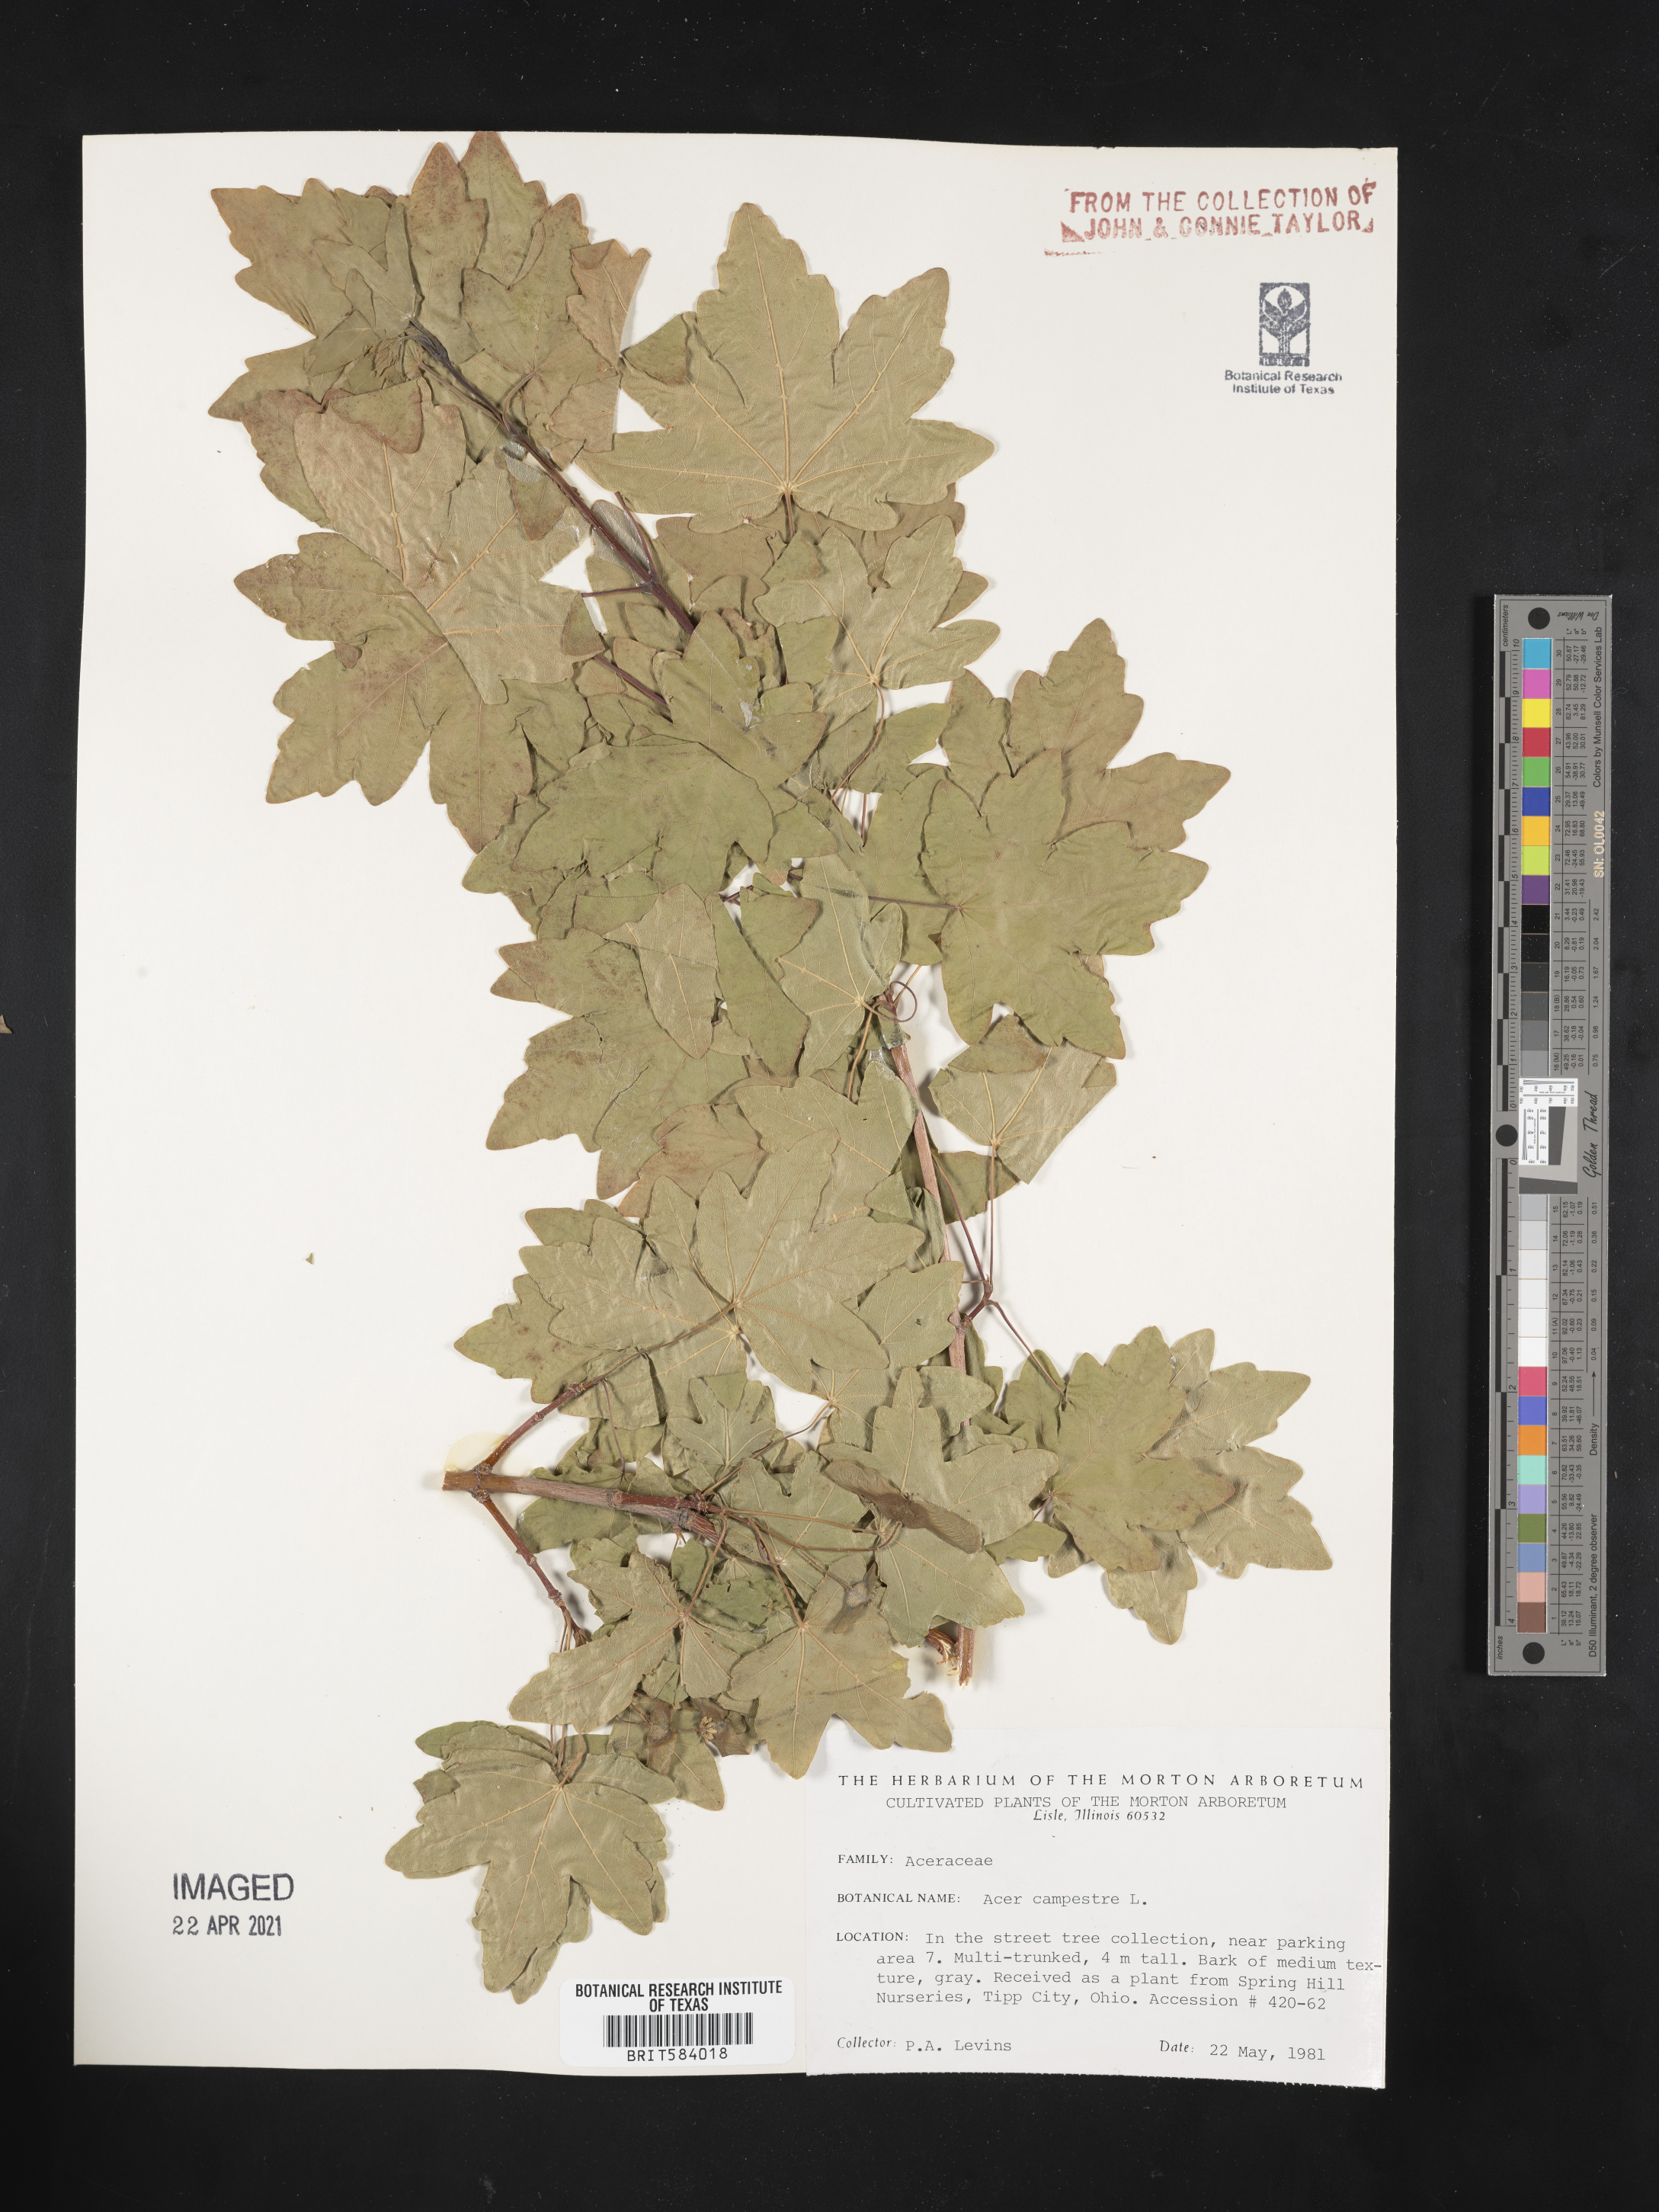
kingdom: Plantae
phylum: Tracheophyta
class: Magnoliopsida
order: Sapindales
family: Sapindaceae
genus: Acer
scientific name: Acer campestre
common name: Field maple
